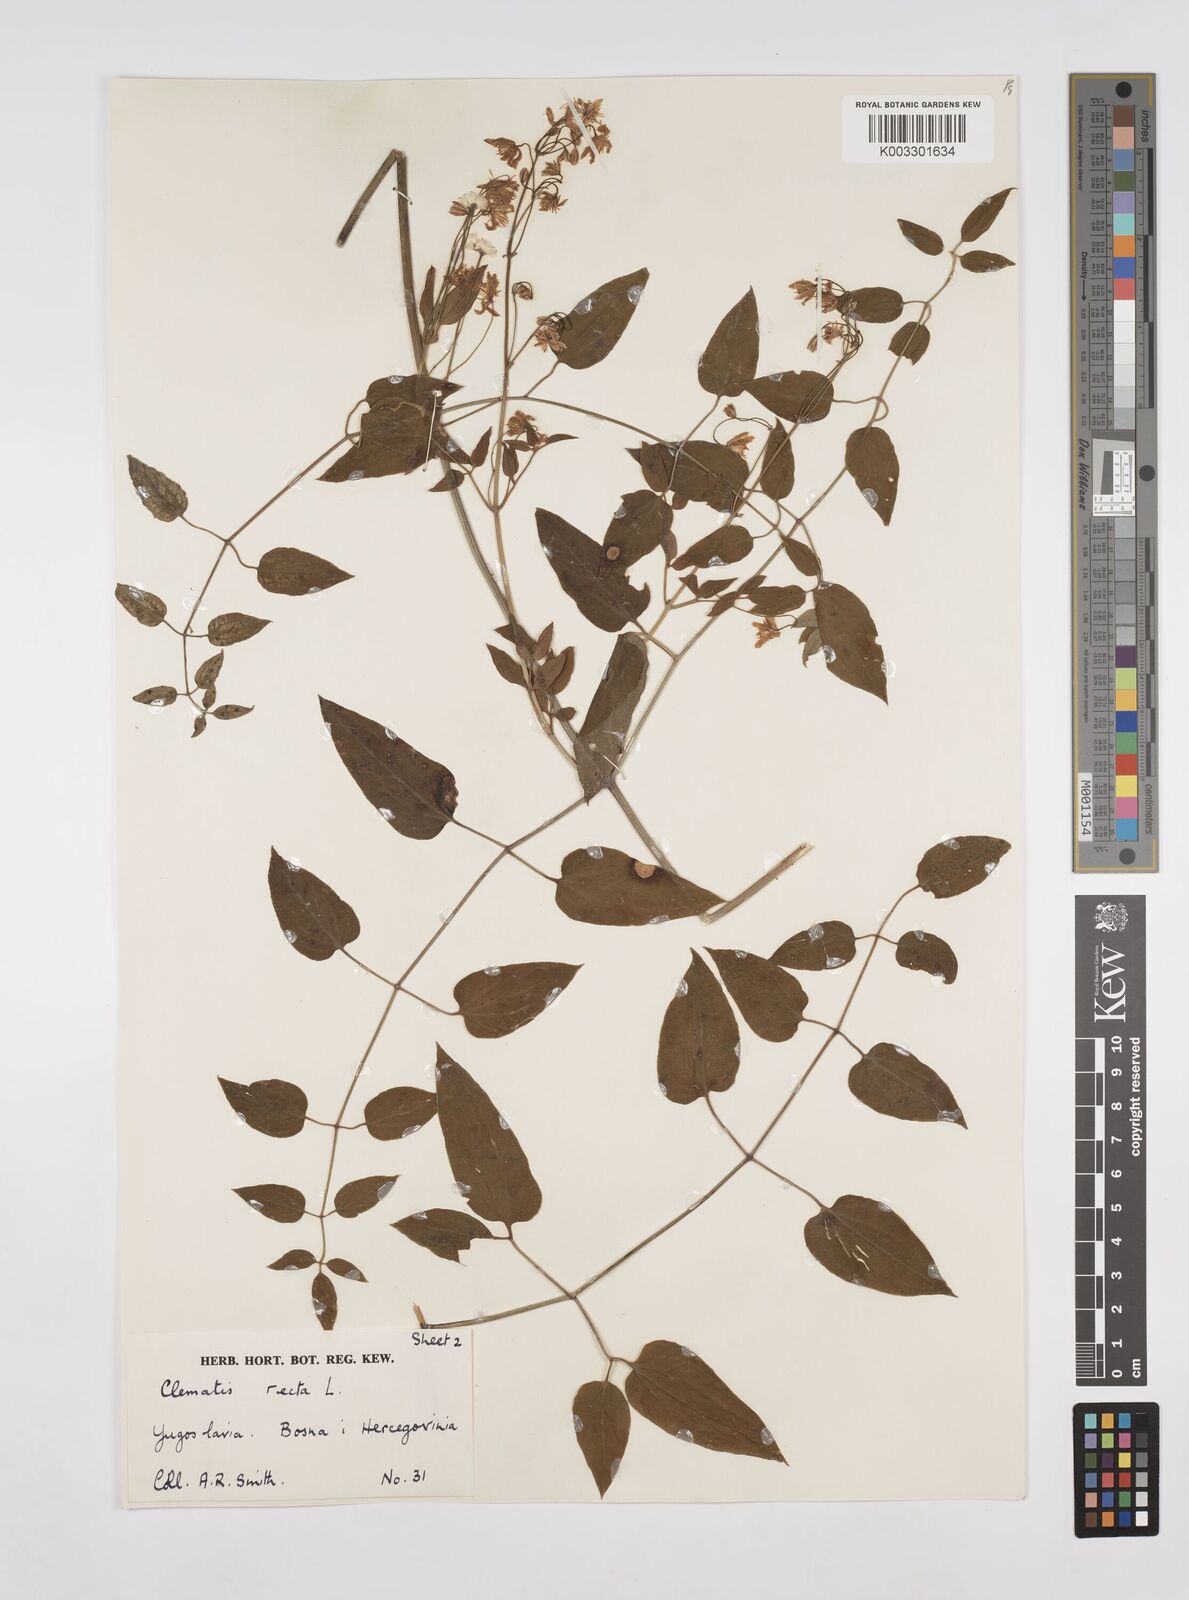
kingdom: Plantae
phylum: Tracheophyta
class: Magnoliopsida
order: Ranunculales
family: Ranunculaceae
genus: Clematis
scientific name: Clematis recta
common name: Ground clematis
